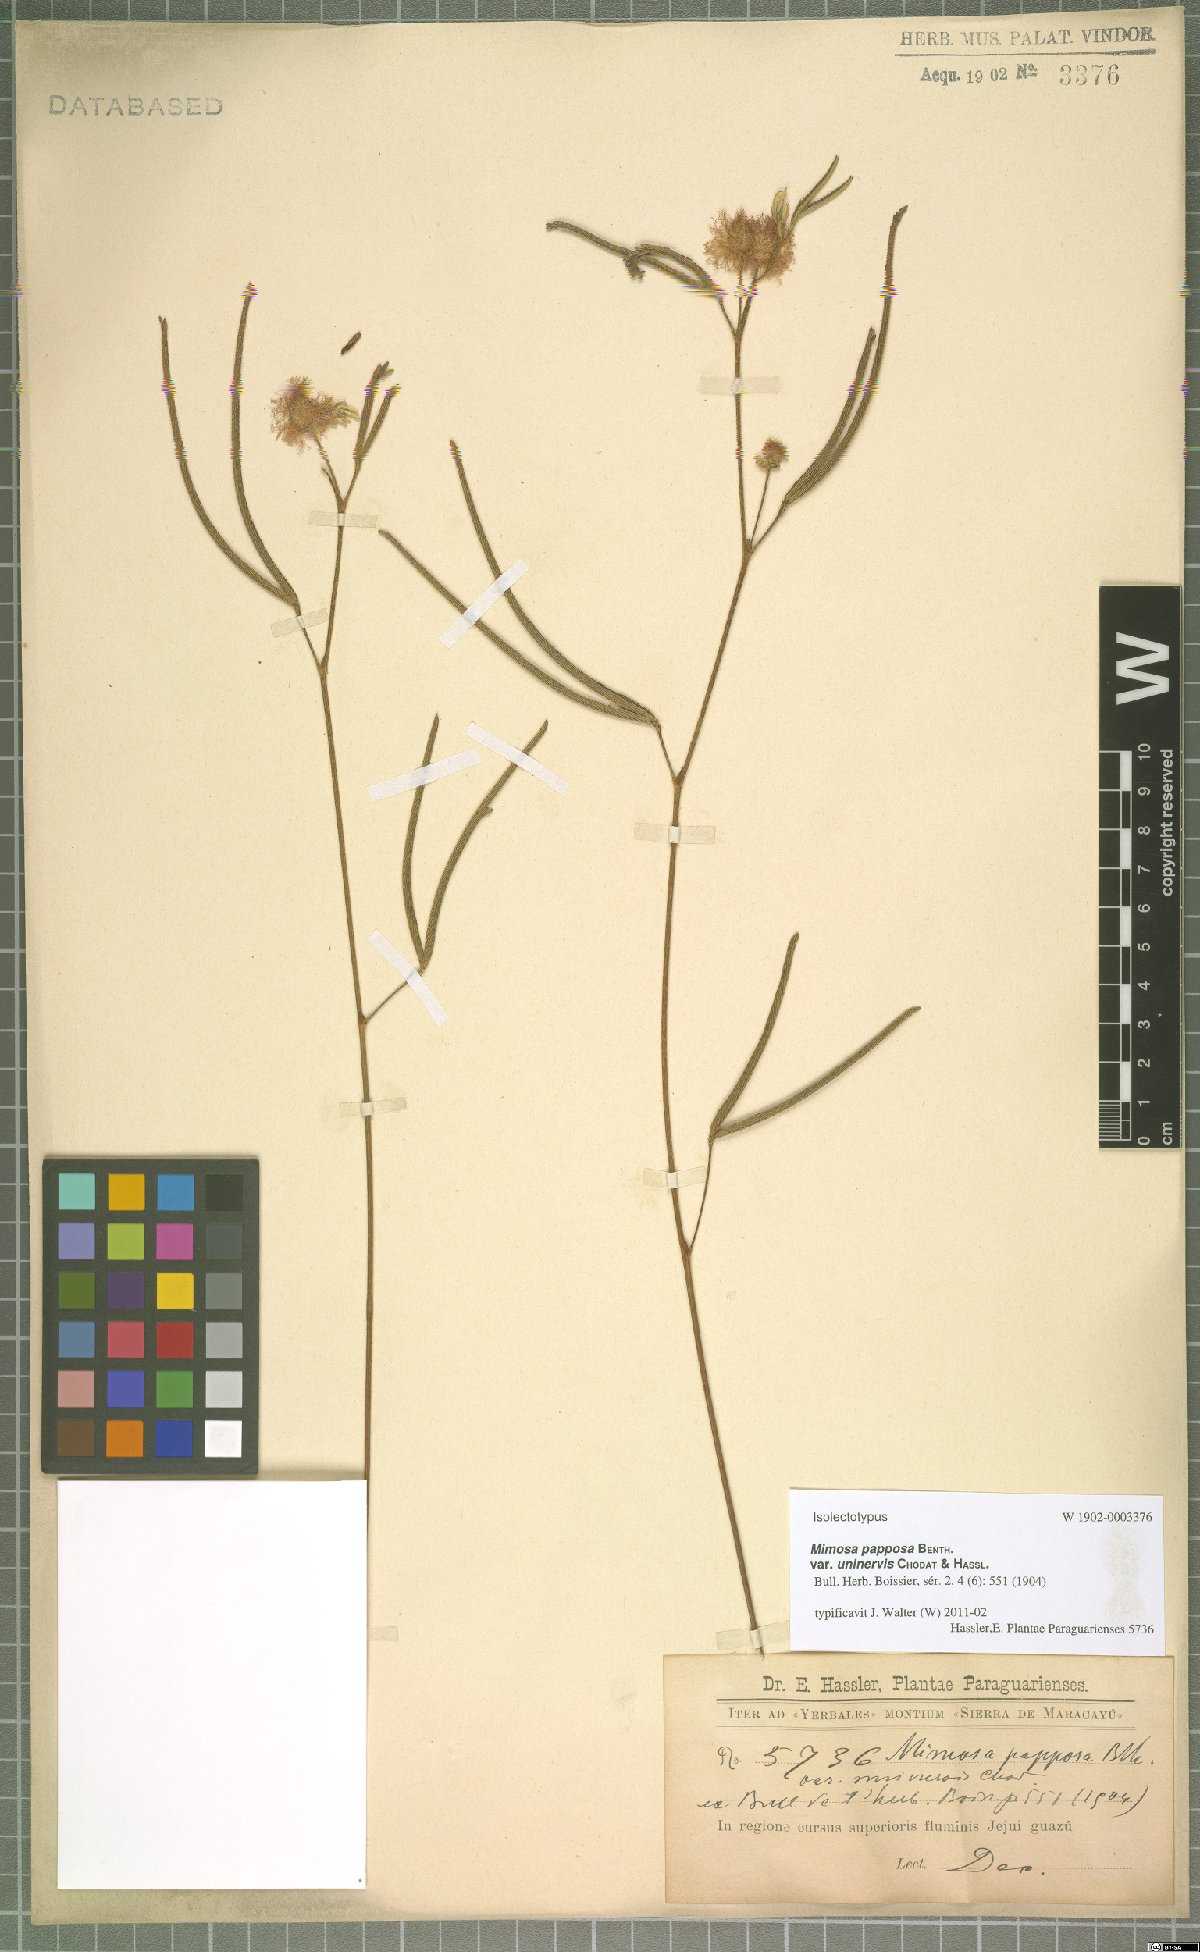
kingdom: Plantae
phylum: Tracheophyta
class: Magnoliopsida
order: Fabales
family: Fabaceae
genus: Mimosa
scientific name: Mimosa uninervis
